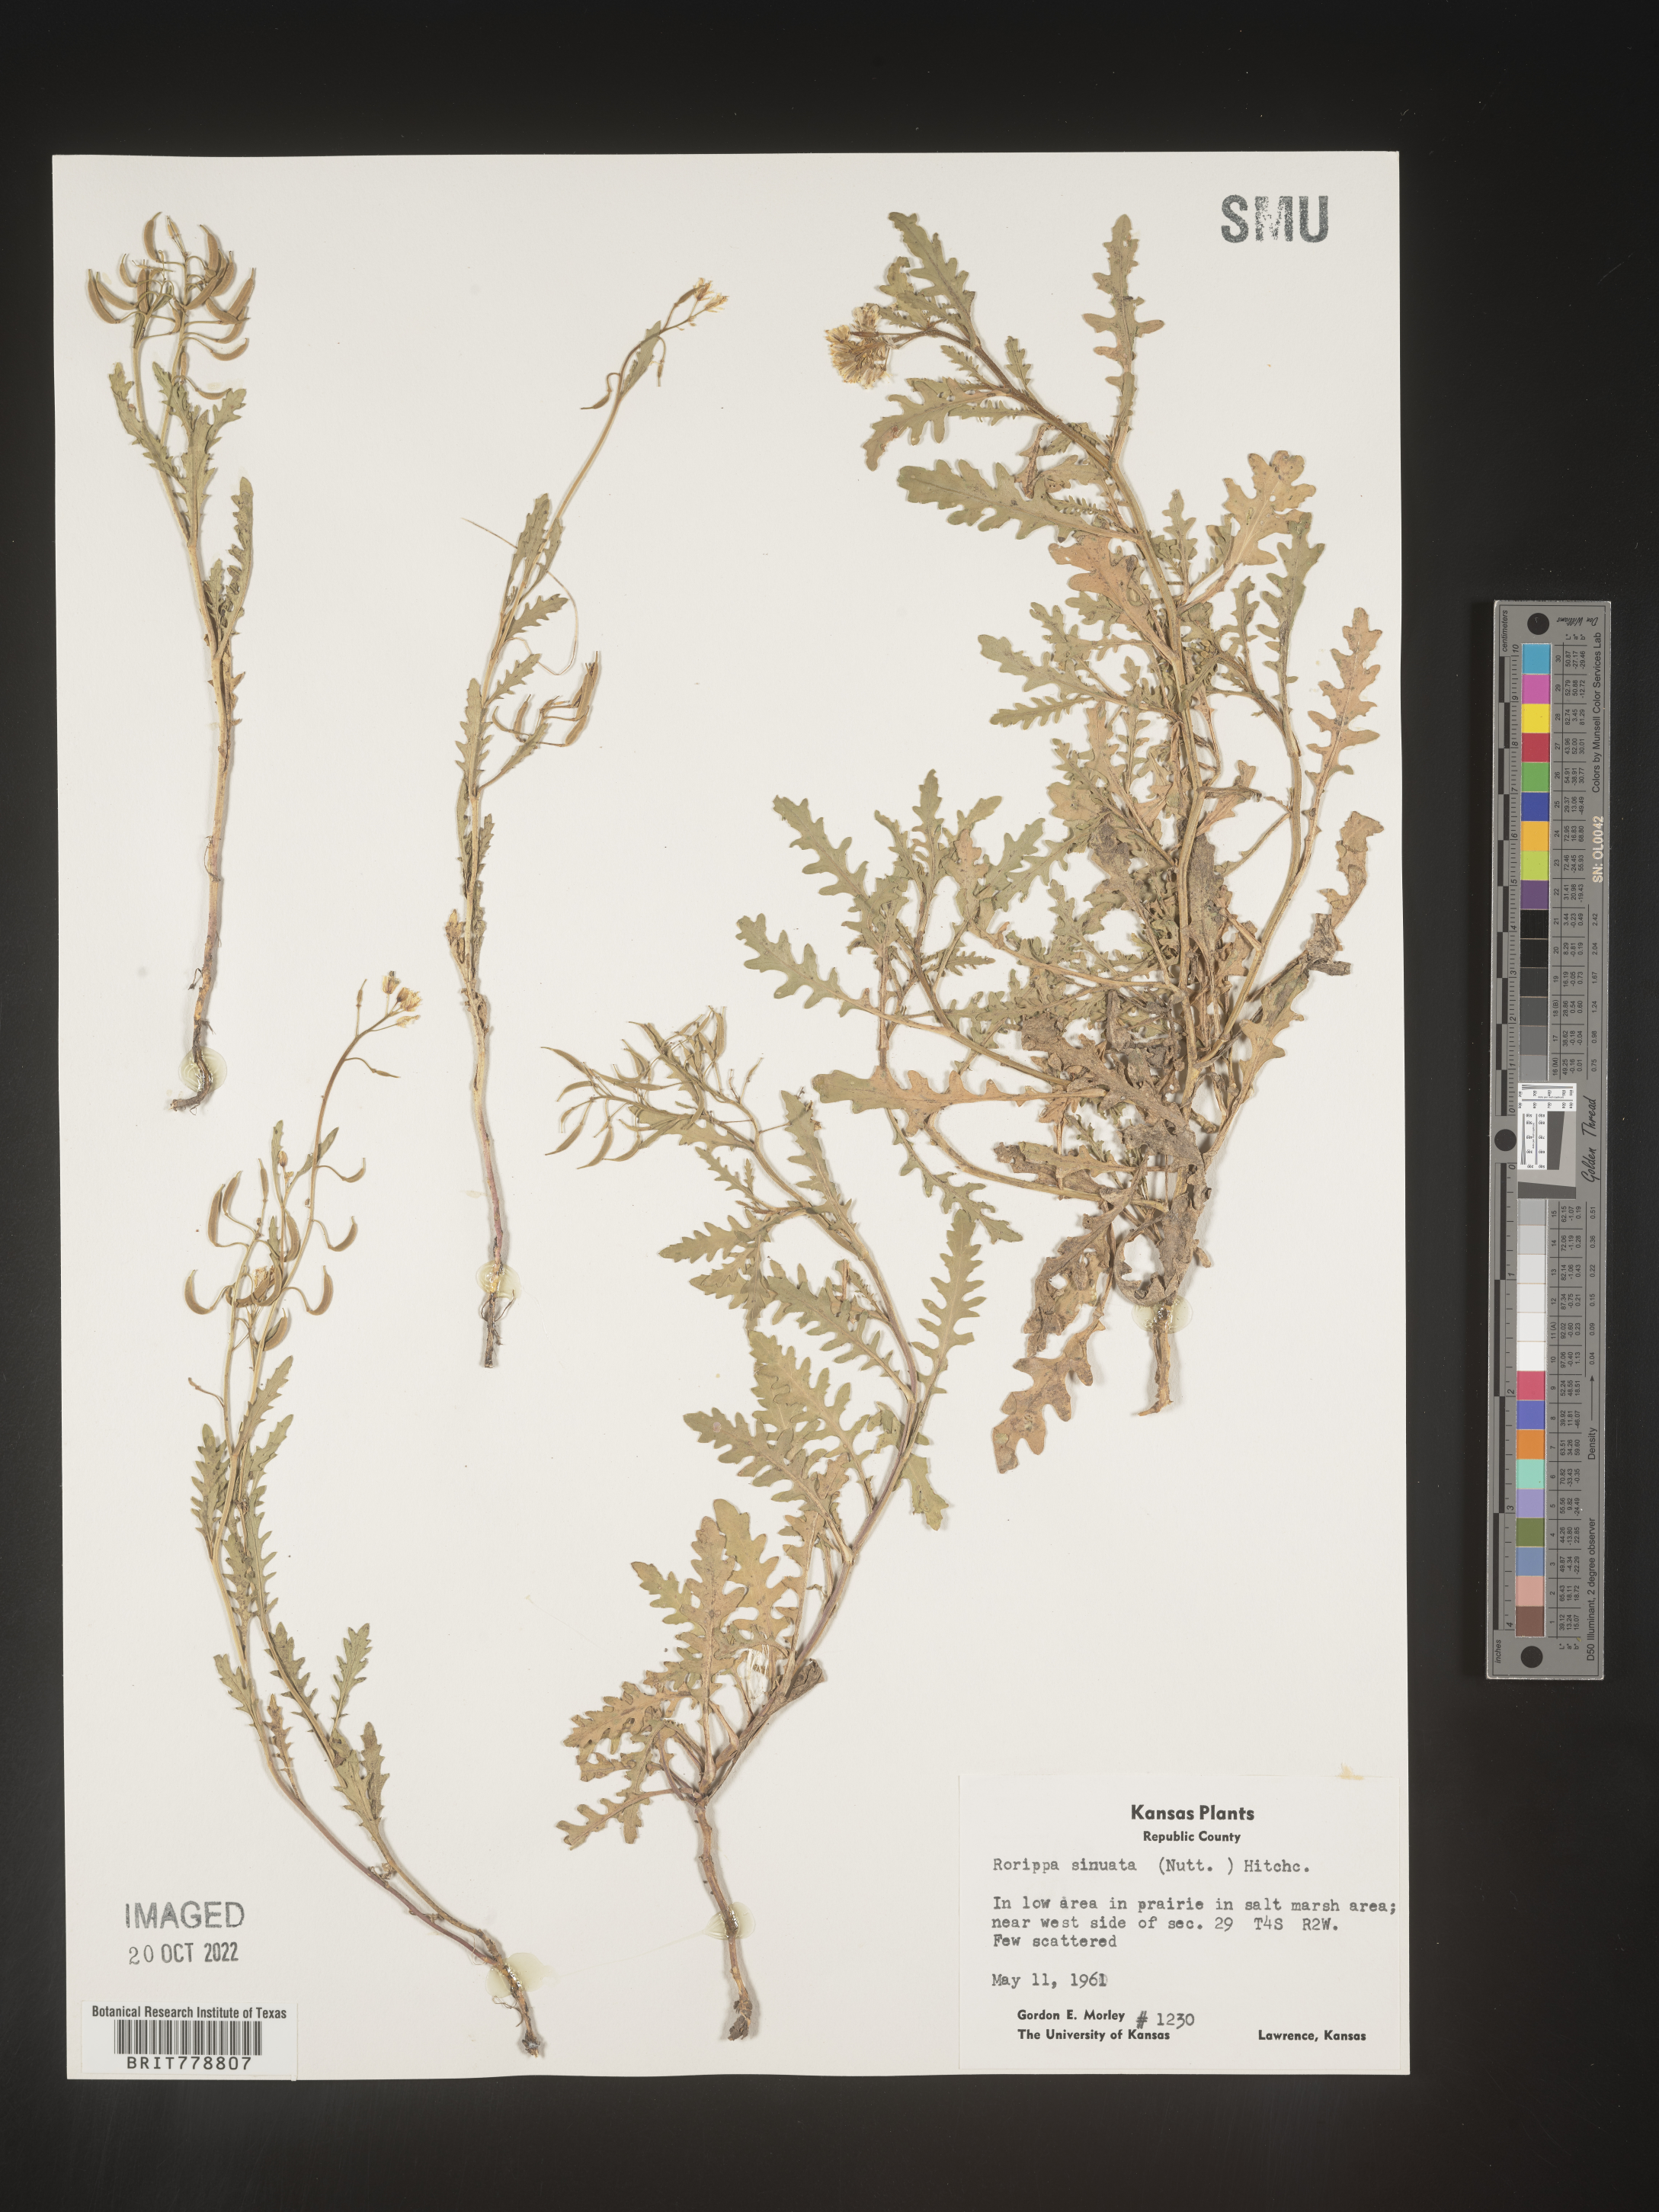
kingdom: Plantae
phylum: Tracheophyta
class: Magnoliopsida
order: Brassicales
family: Brassicaceae
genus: Rorippa
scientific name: Rorippa sinuata
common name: Spread yellow cress
